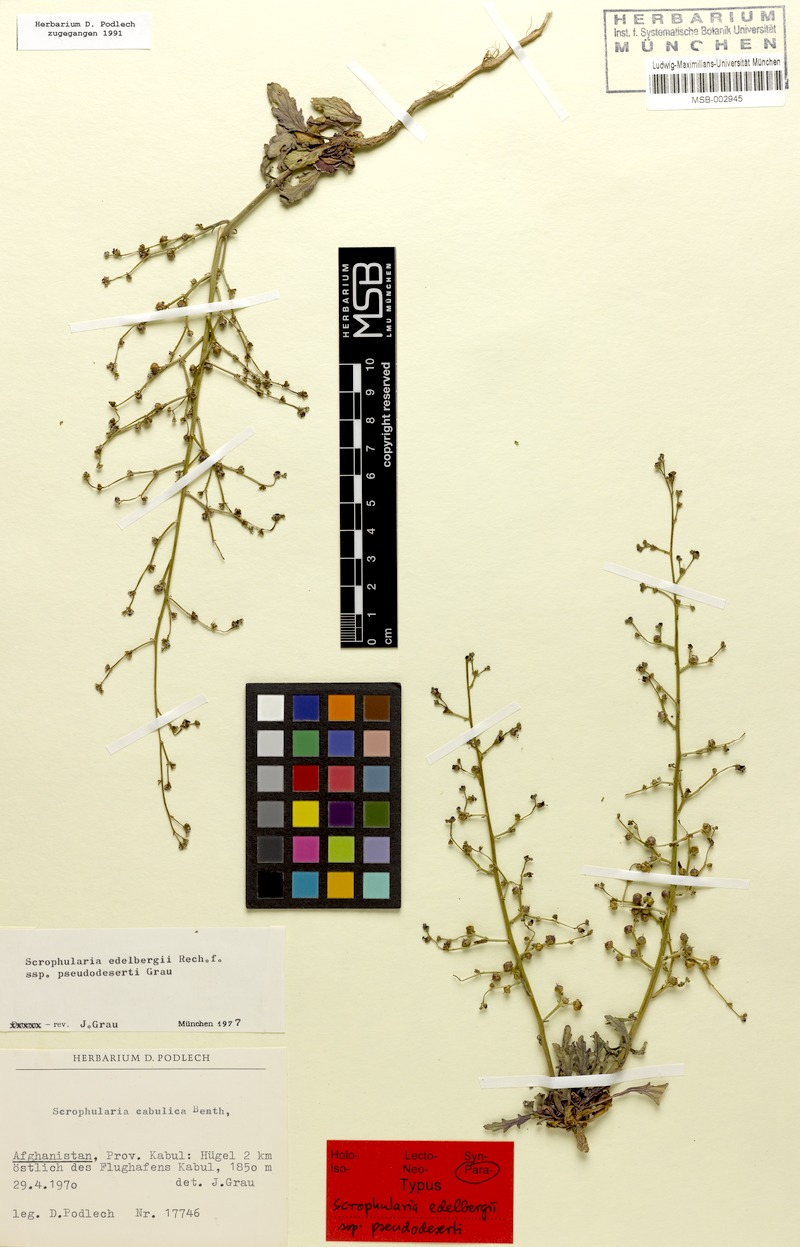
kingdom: Plantae
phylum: Tracheophyta
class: Magnoliopsida
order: Lamiales
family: Scrophulariaceae
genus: Scrophularia
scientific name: Scrophularia edelbergii
